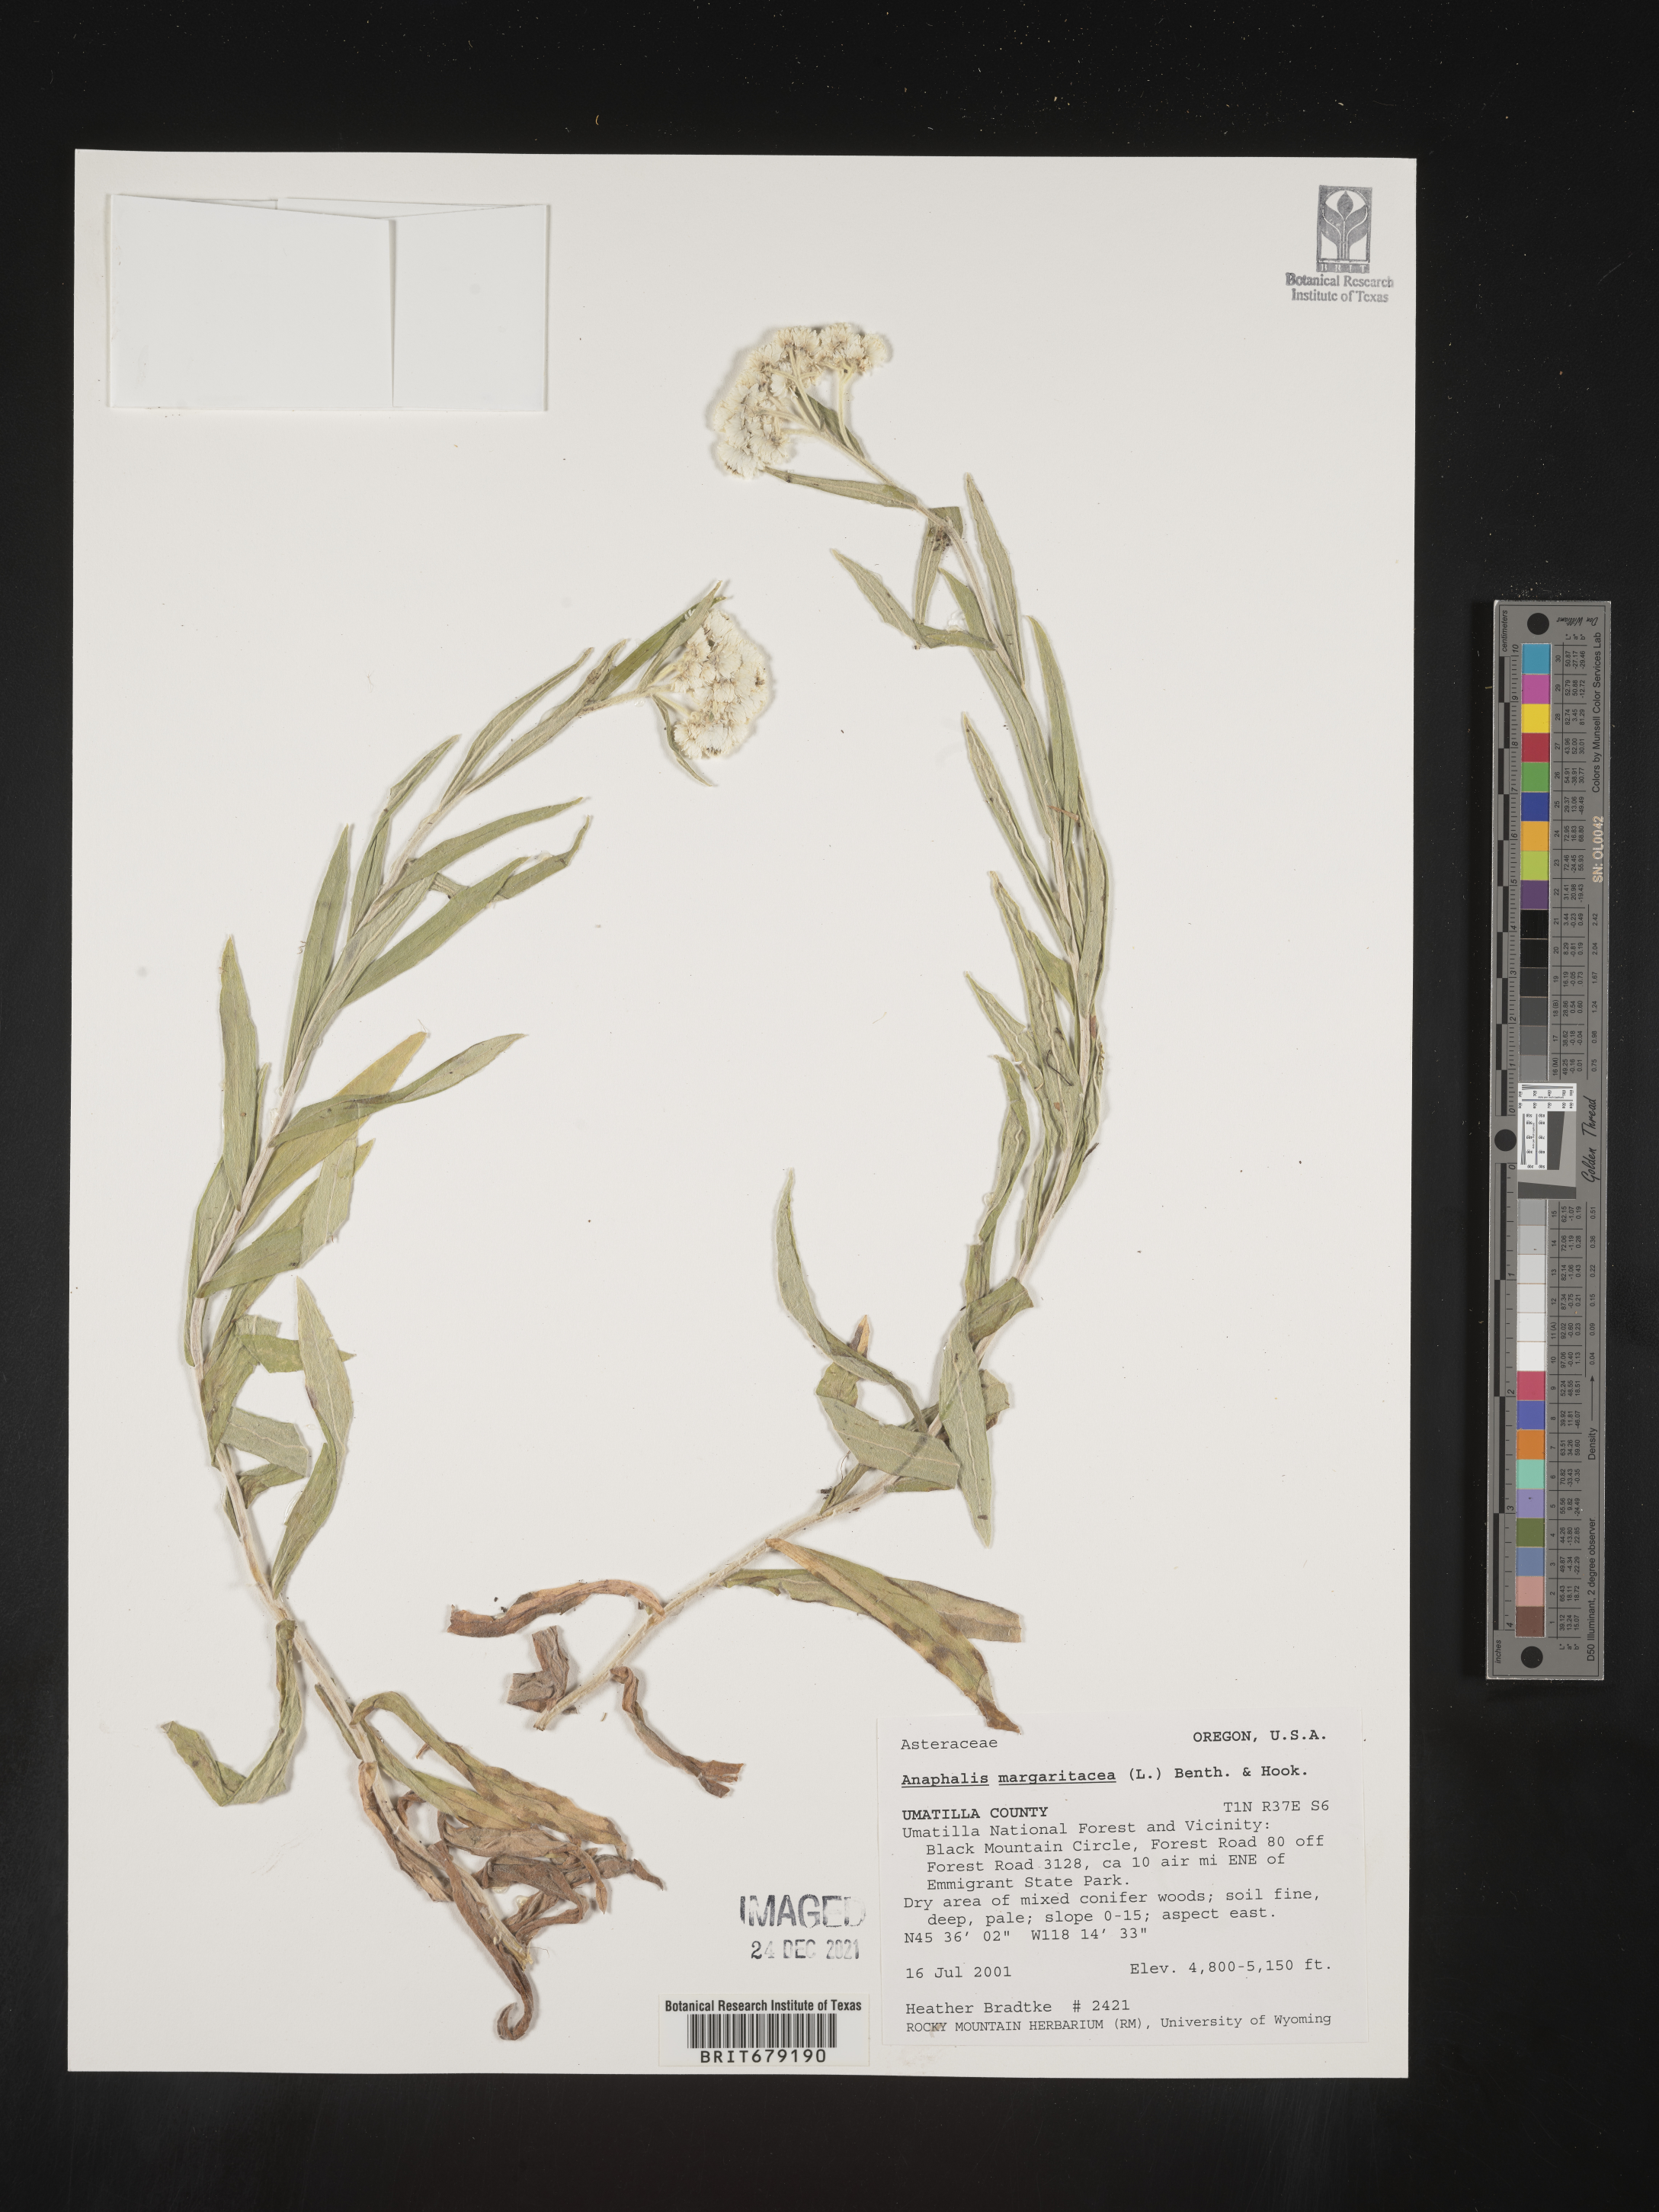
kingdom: Plantae
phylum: Tracheophyta
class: Magnoliopsida
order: Asterales
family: Asteraceae
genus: Anaphalis
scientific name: Anaphalis margaritacea
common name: Pearly everlasting
